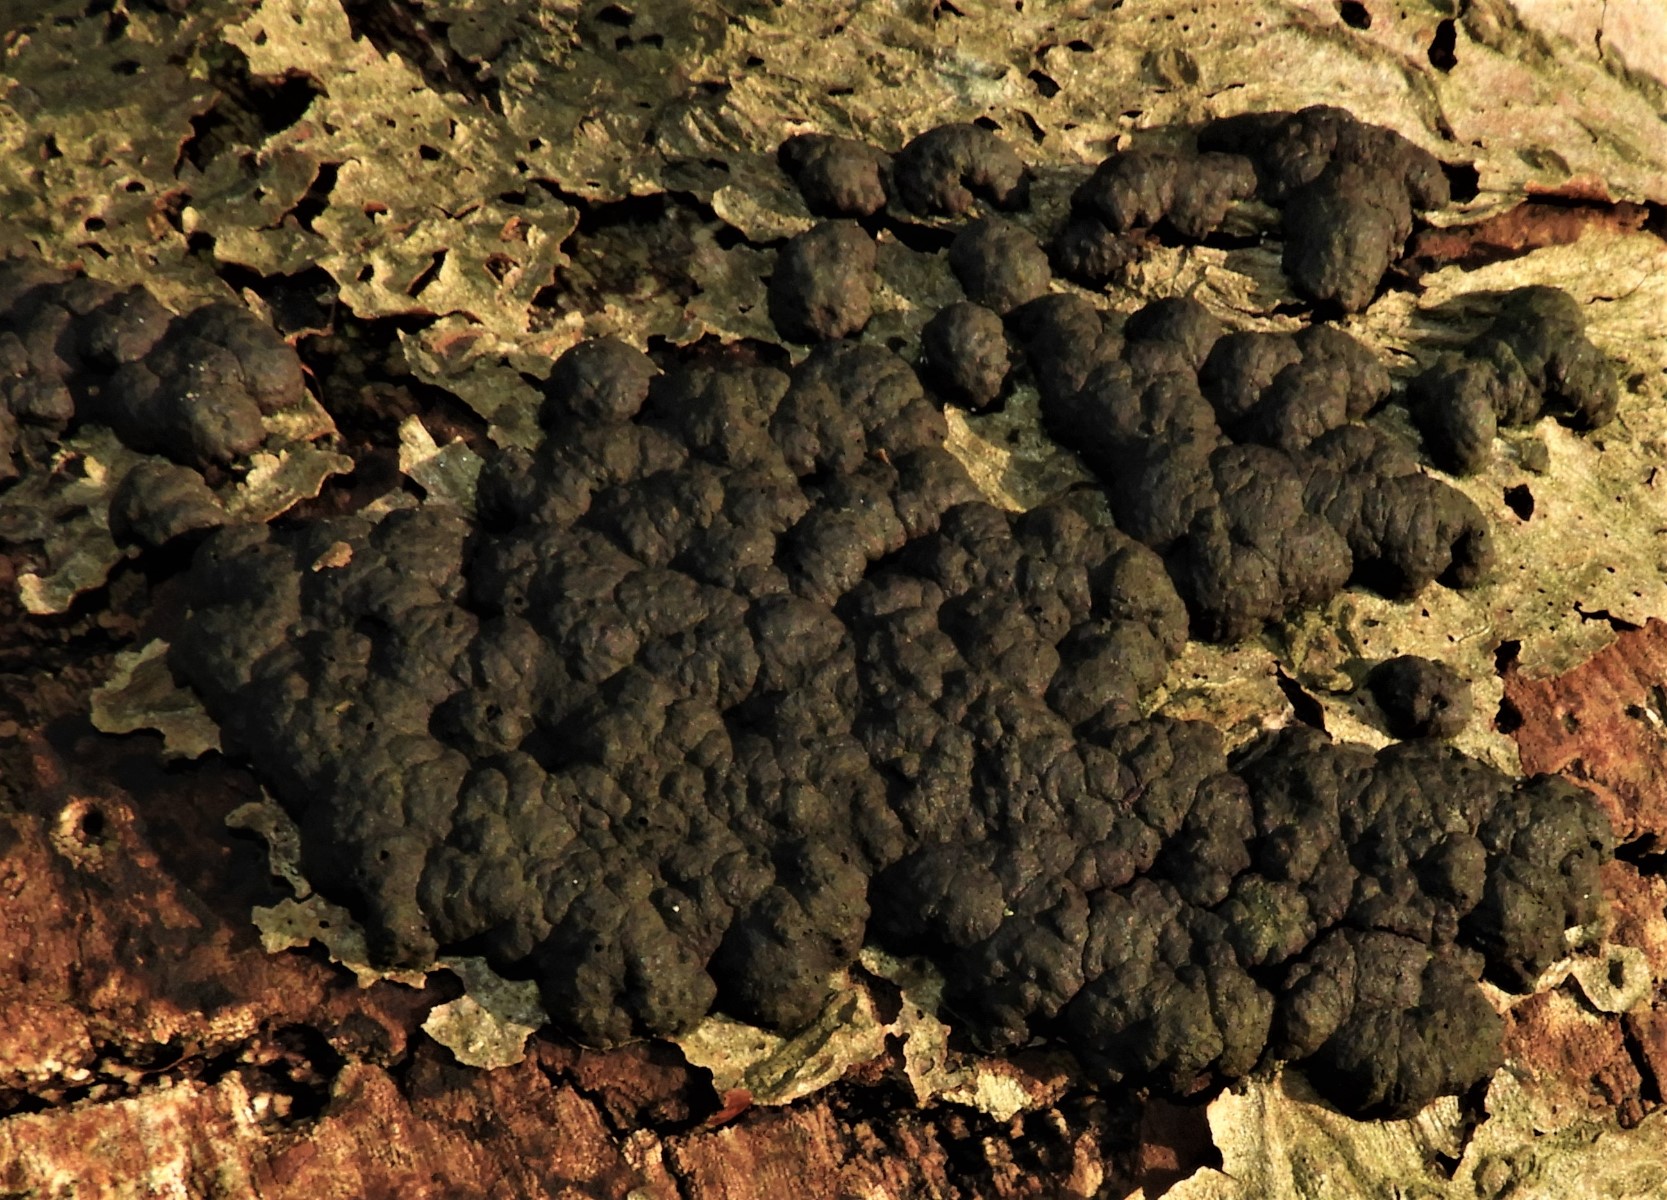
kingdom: Fungi
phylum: Ascomycota
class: Sordariomycetes
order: Xylariales
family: Hypoxylaceae
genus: Jackrogersella
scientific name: Jackrogersella cohaerens
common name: sammenflydende kulbær
